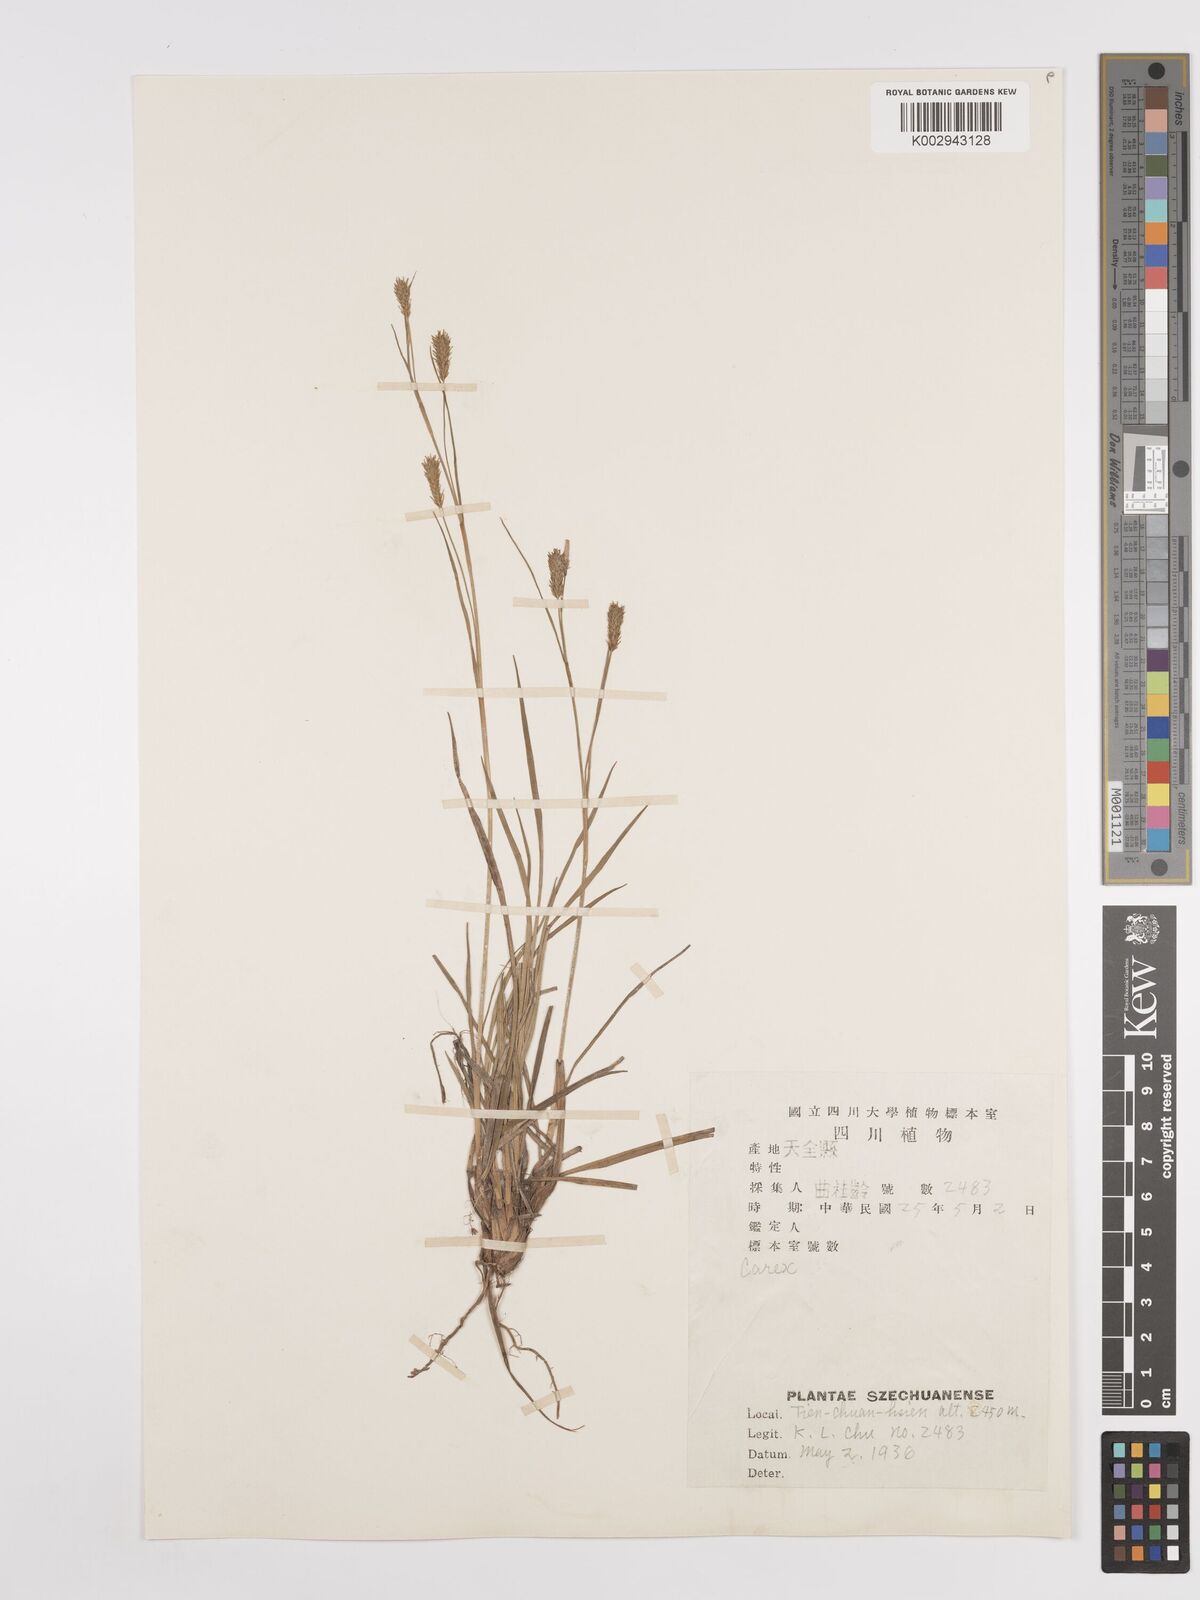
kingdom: Plantae
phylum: Tracheophyta
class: Liliopsida
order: Poales
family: Cyperaceae
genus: Carex
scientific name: Carex
